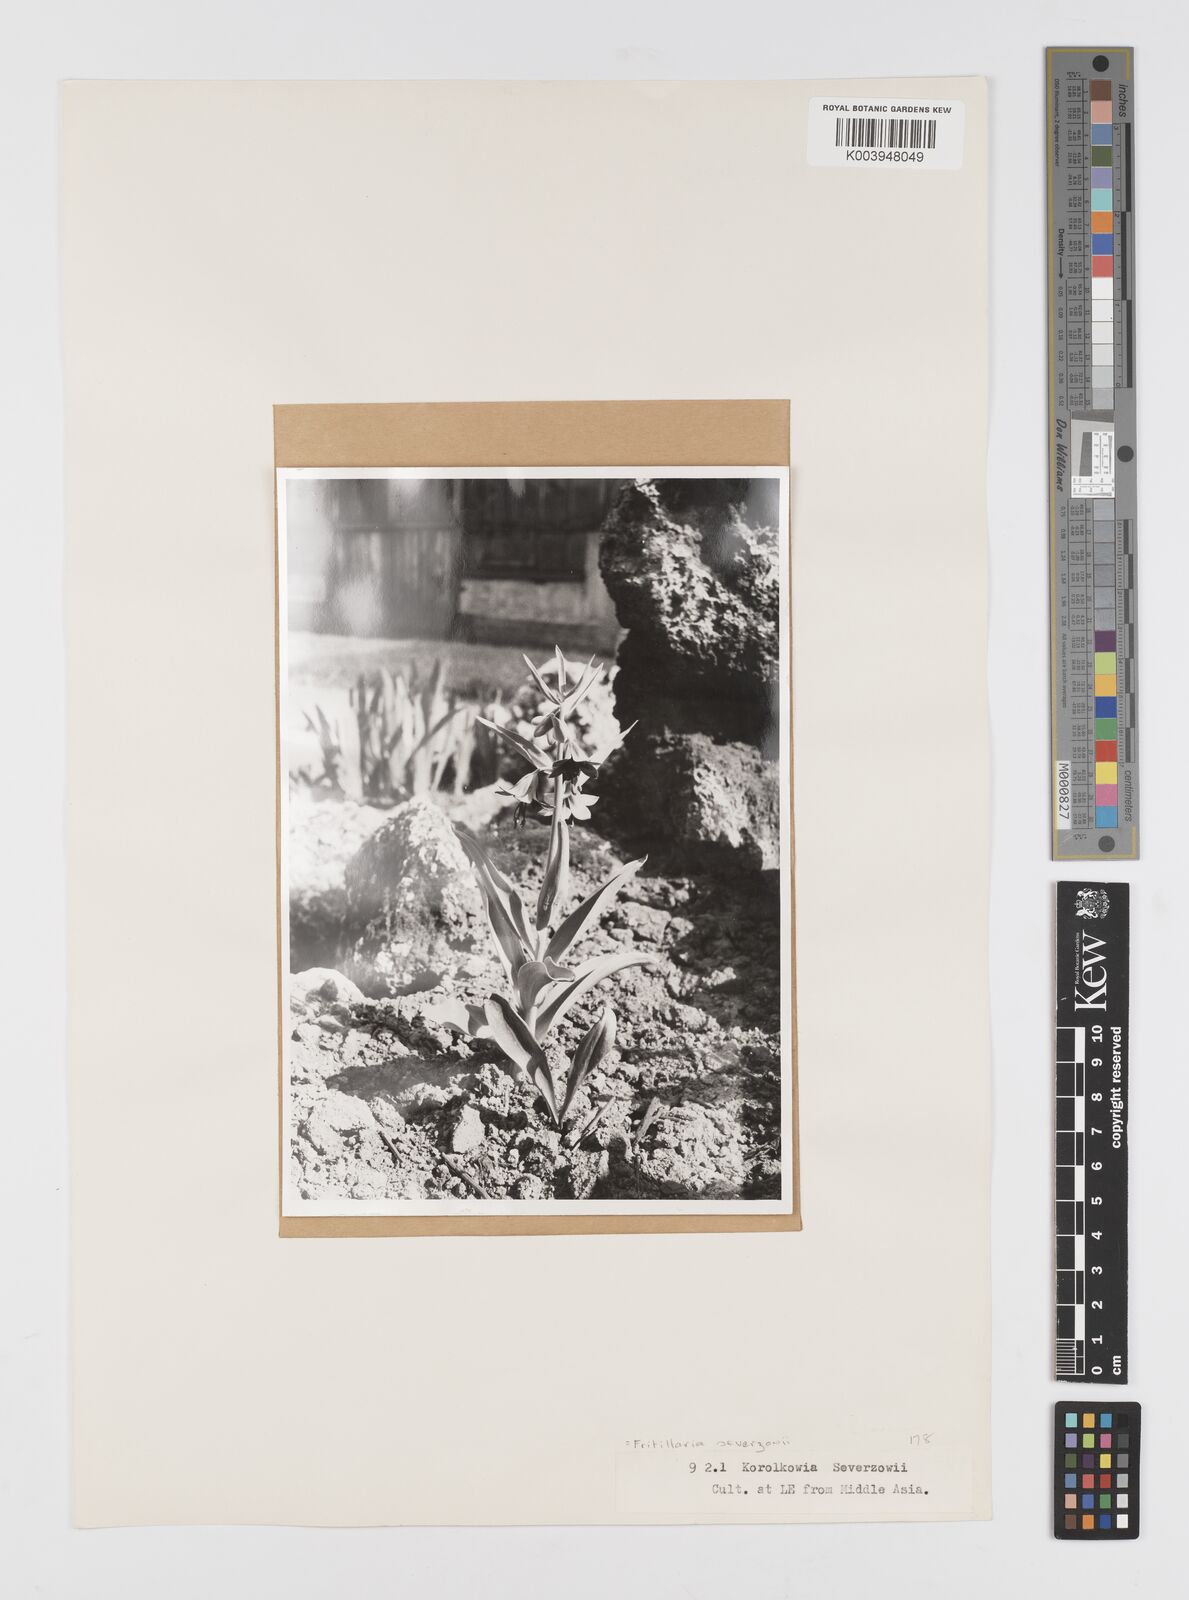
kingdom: Plantae
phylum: Tracheophyta
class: Liliopsida
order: Liliales
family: Liliaceae
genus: Fritillaria
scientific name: Fritillaria sewerzowii
